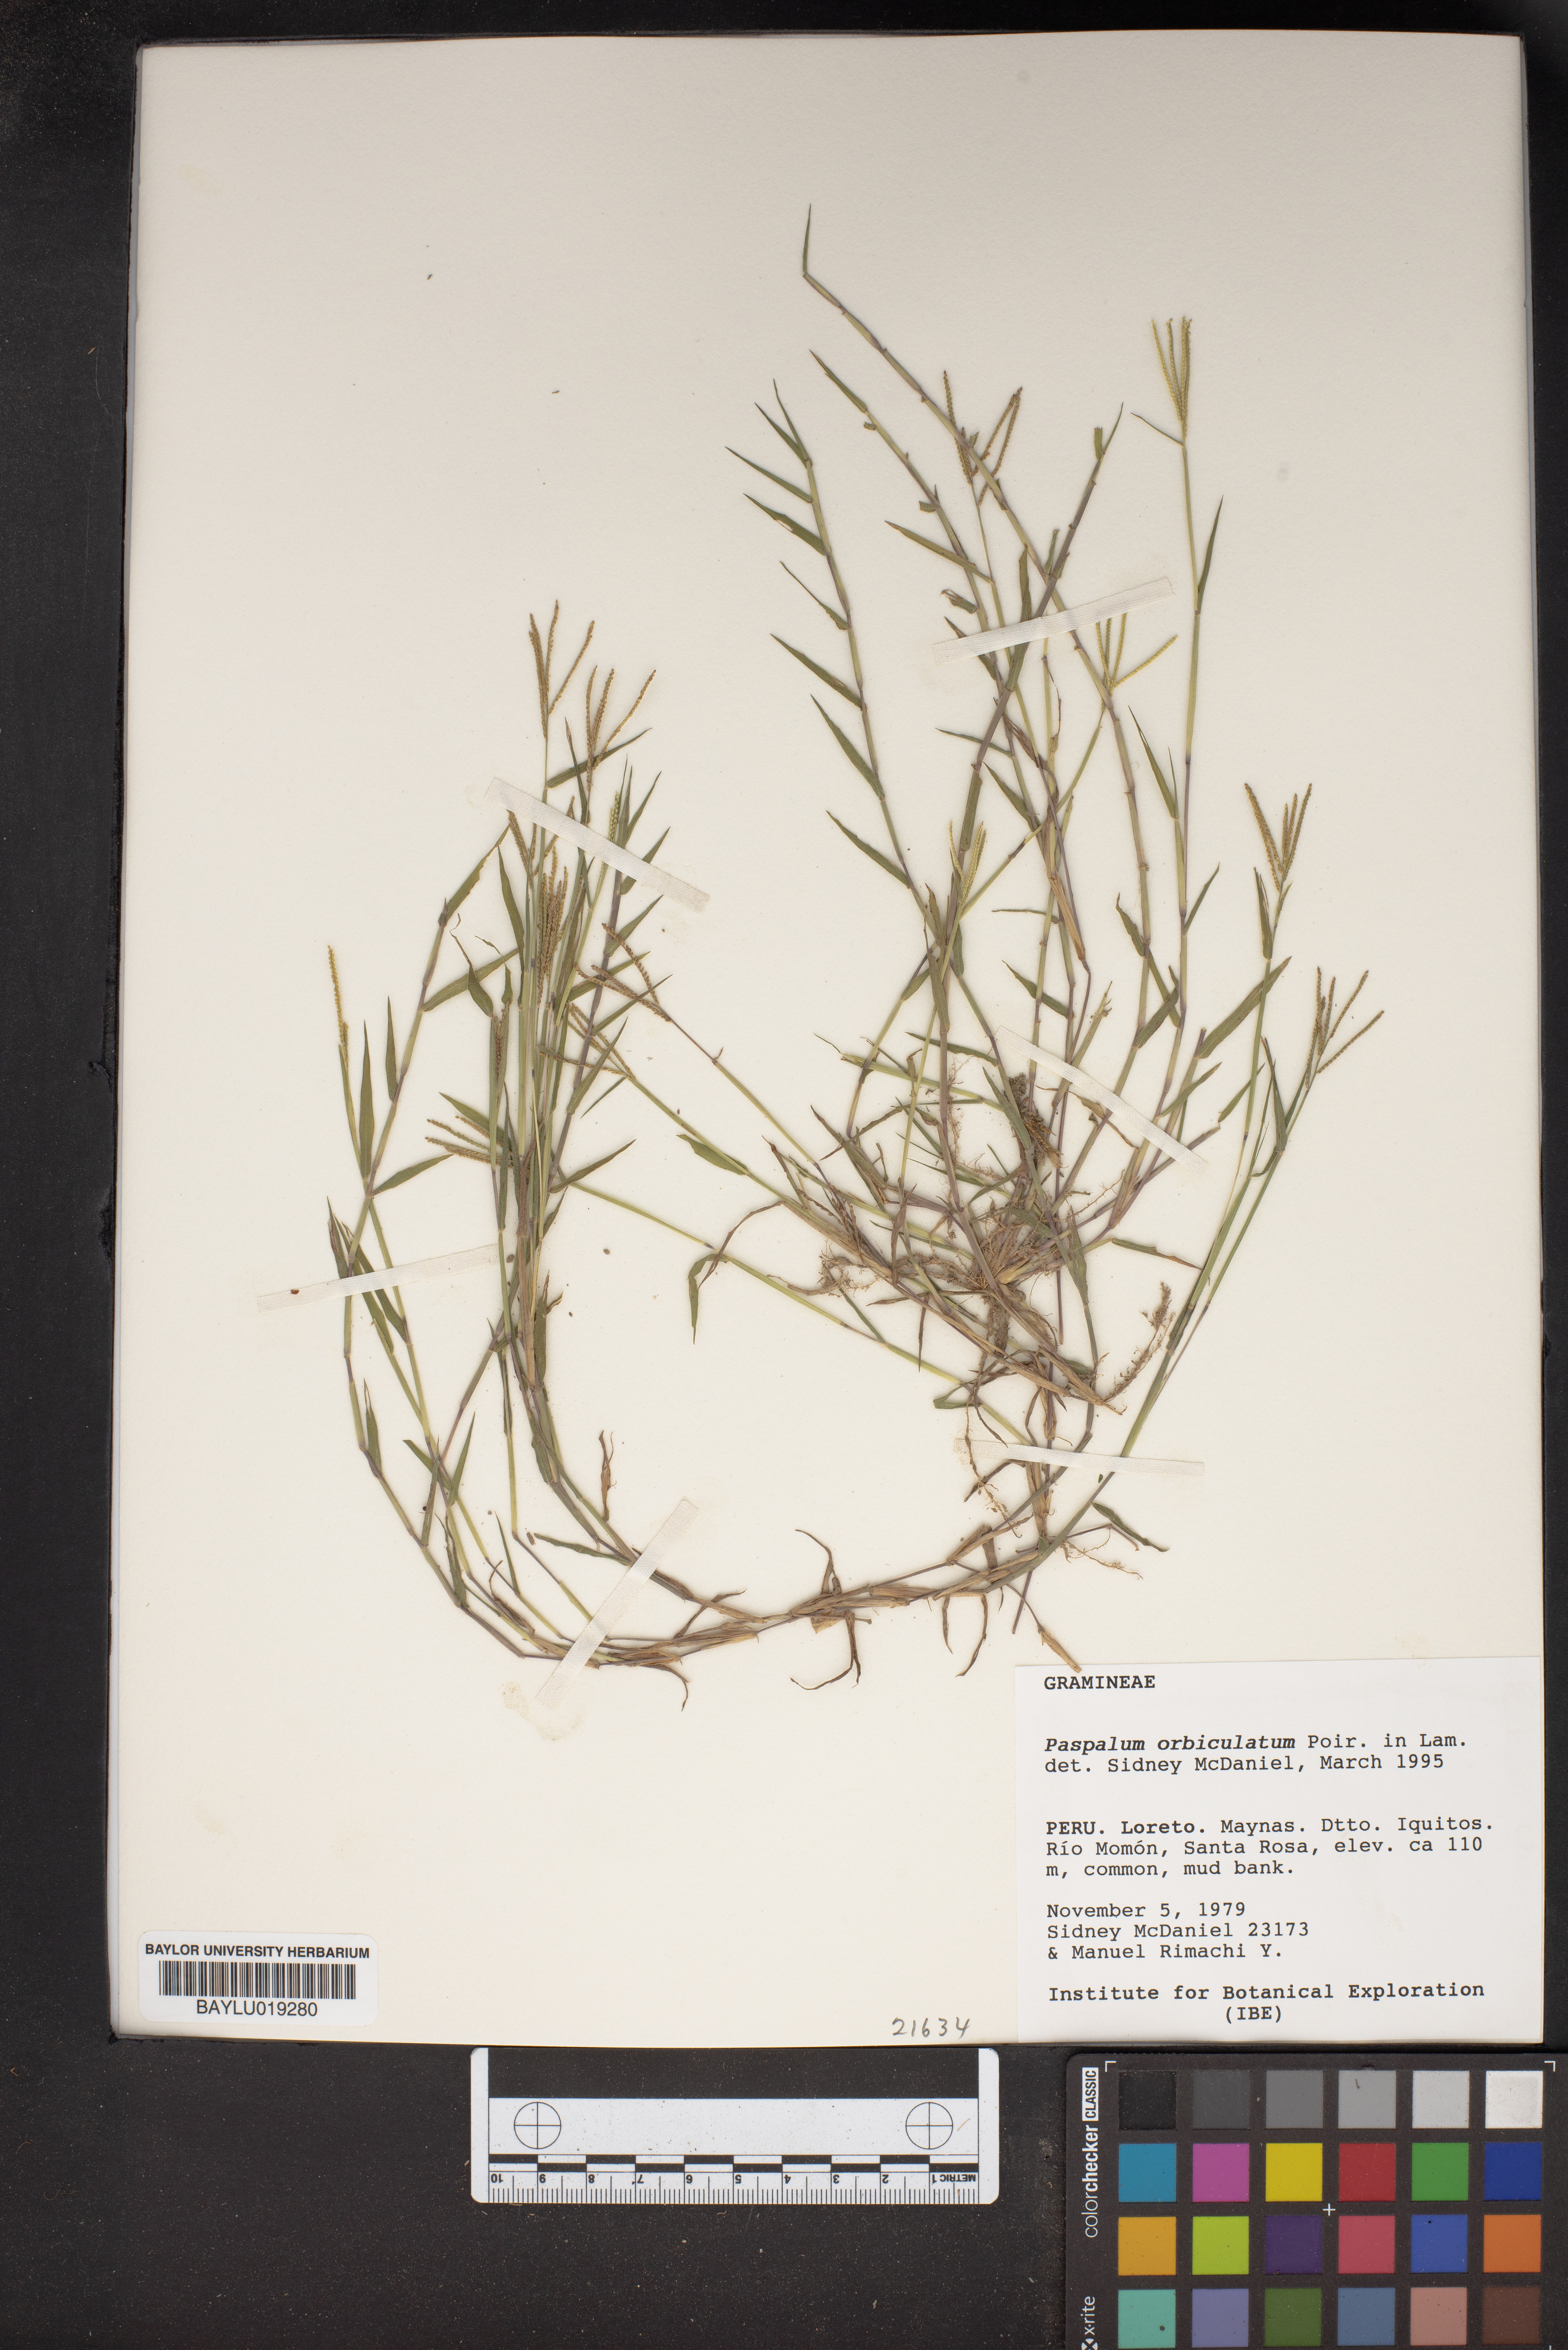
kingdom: Plantae
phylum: Tracheophyta
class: Liliopsida
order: Poales
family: Poaceae
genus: Paspalum
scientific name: Paspalum orbiculatum
